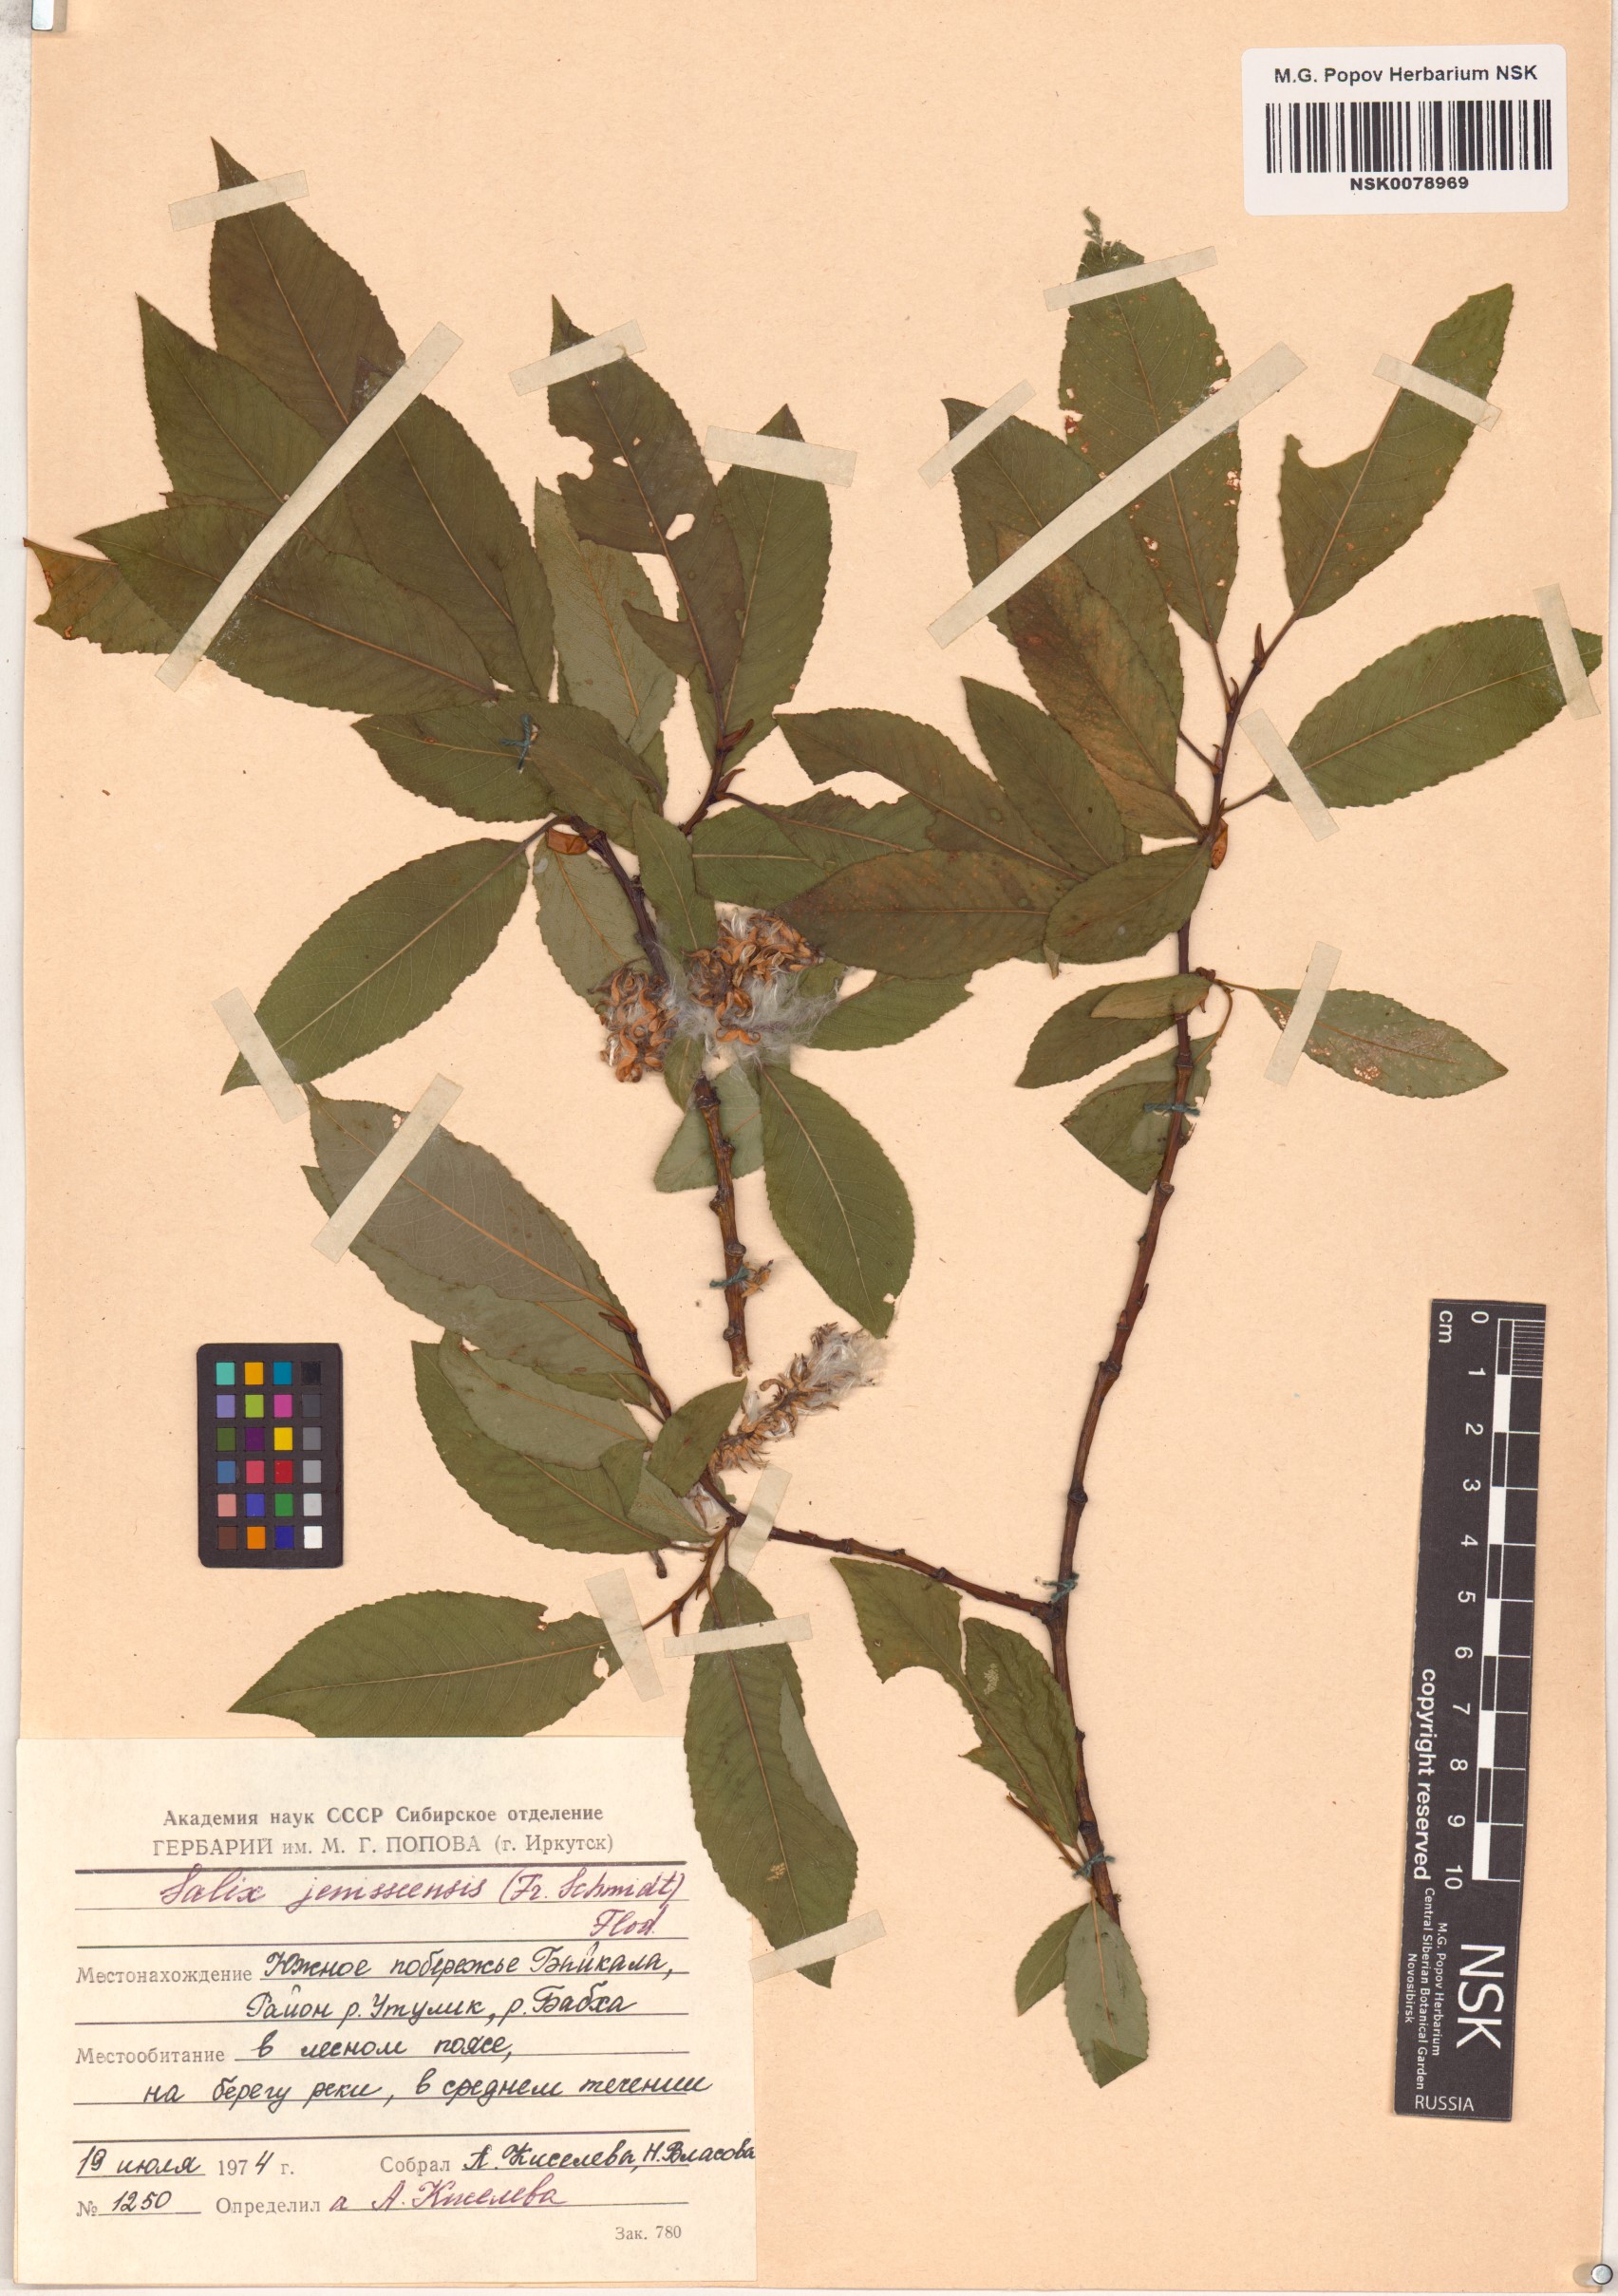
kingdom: Plantae
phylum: Tracheophyta
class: Magnoliopsida
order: Malpighiales
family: Salicaceae
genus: Salix
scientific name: Salix jenisseensis
